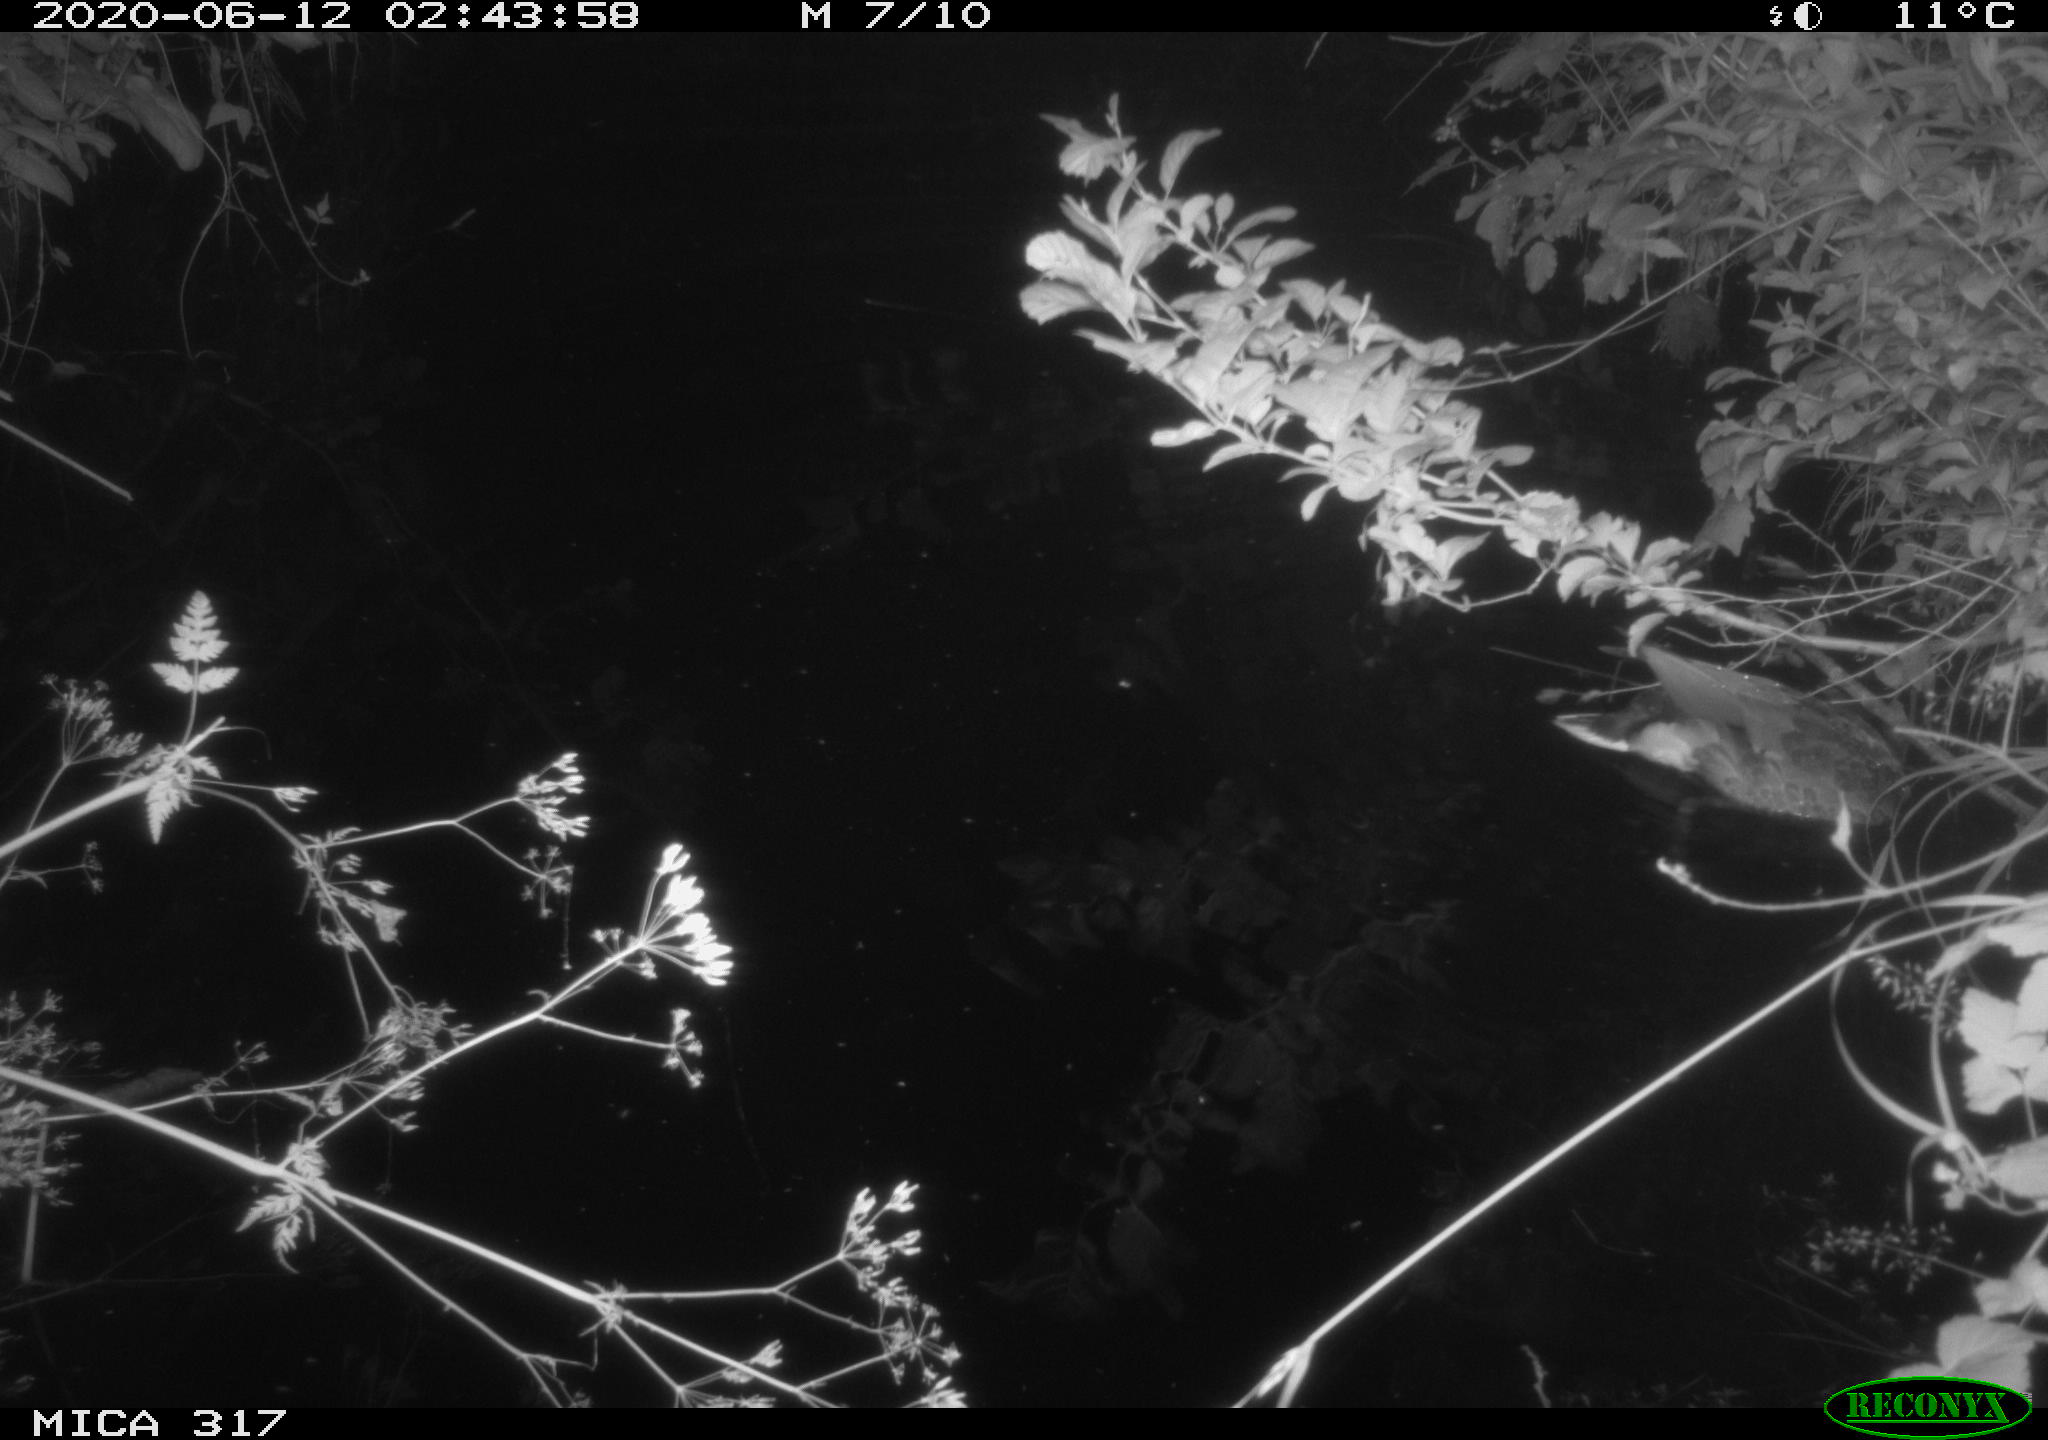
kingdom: Animalia
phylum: Chordata
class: Aves
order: Anseriformes
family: Anatidae
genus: Anas
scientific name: Anas platyrhynchos
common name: Mallard
